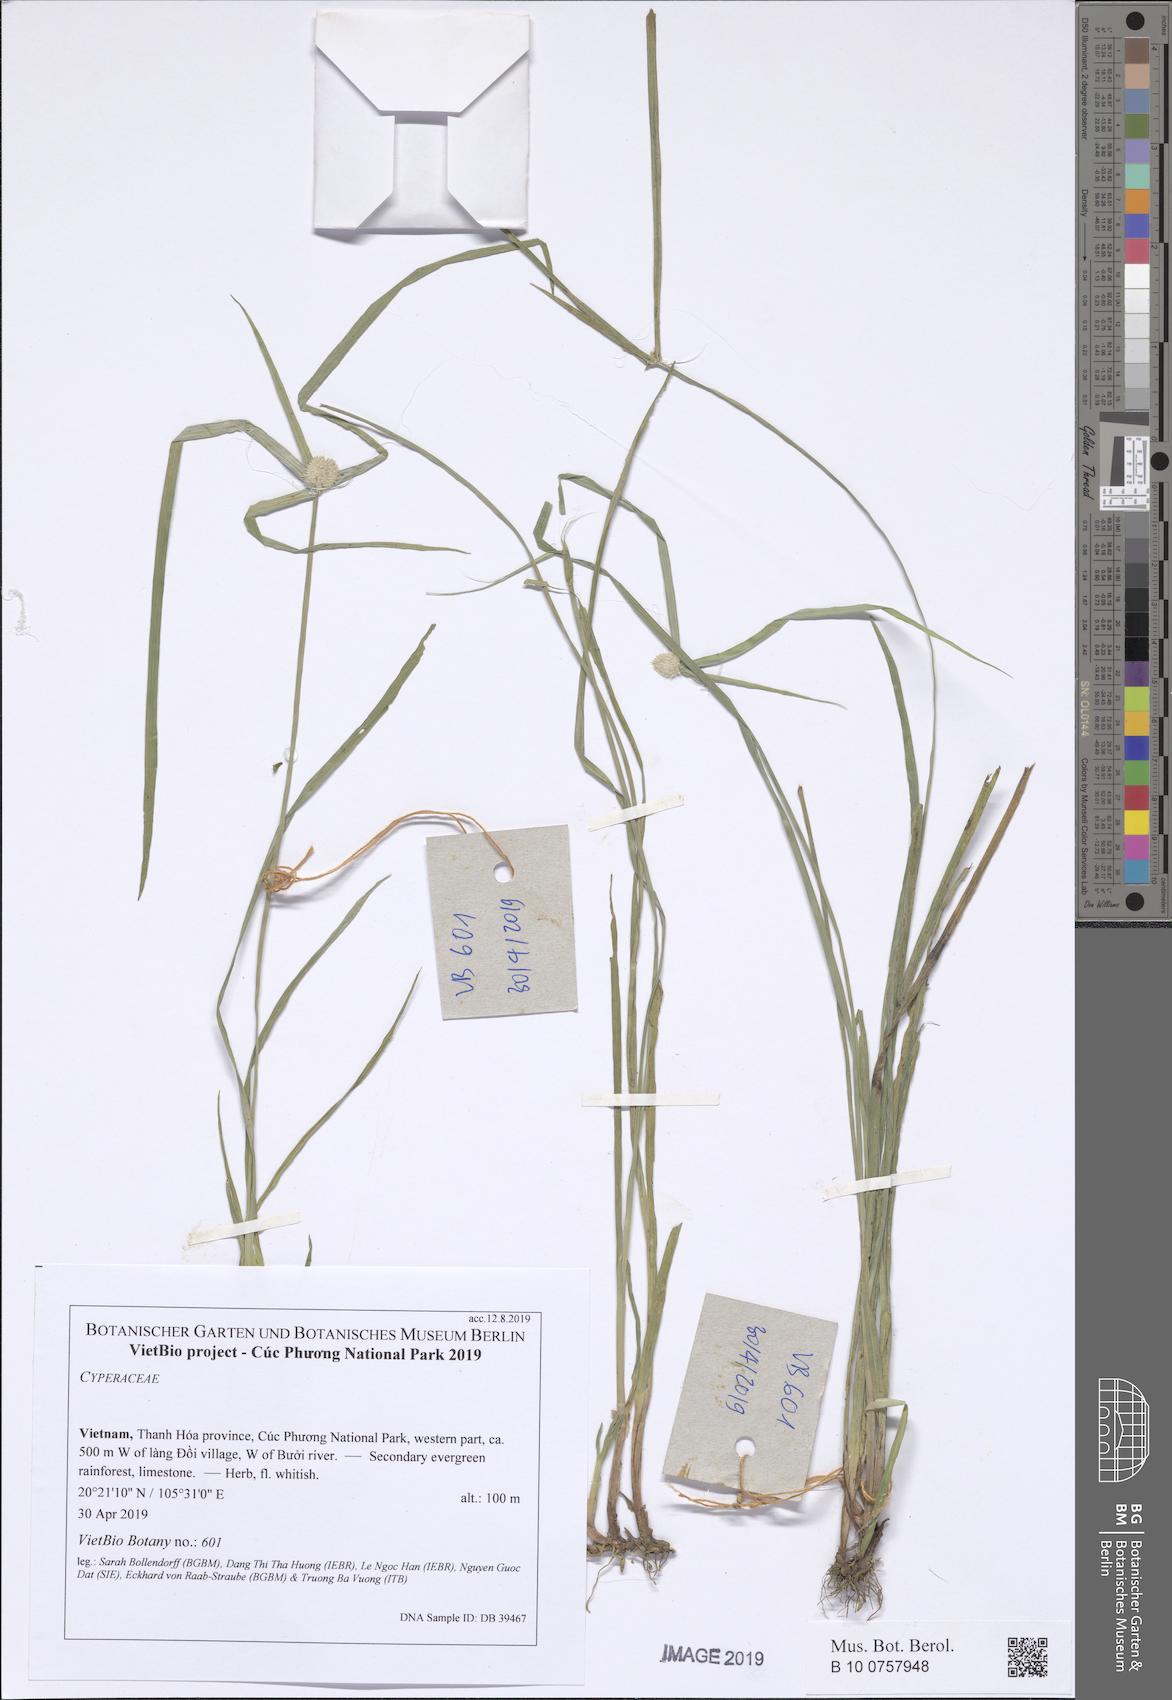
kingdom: Plantae
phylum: Tracheophyta
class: Liliopsida
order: Poales
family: Cyperaceae
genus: Cyperus
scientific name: Cyperus mindorensis
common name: Flatsedge
